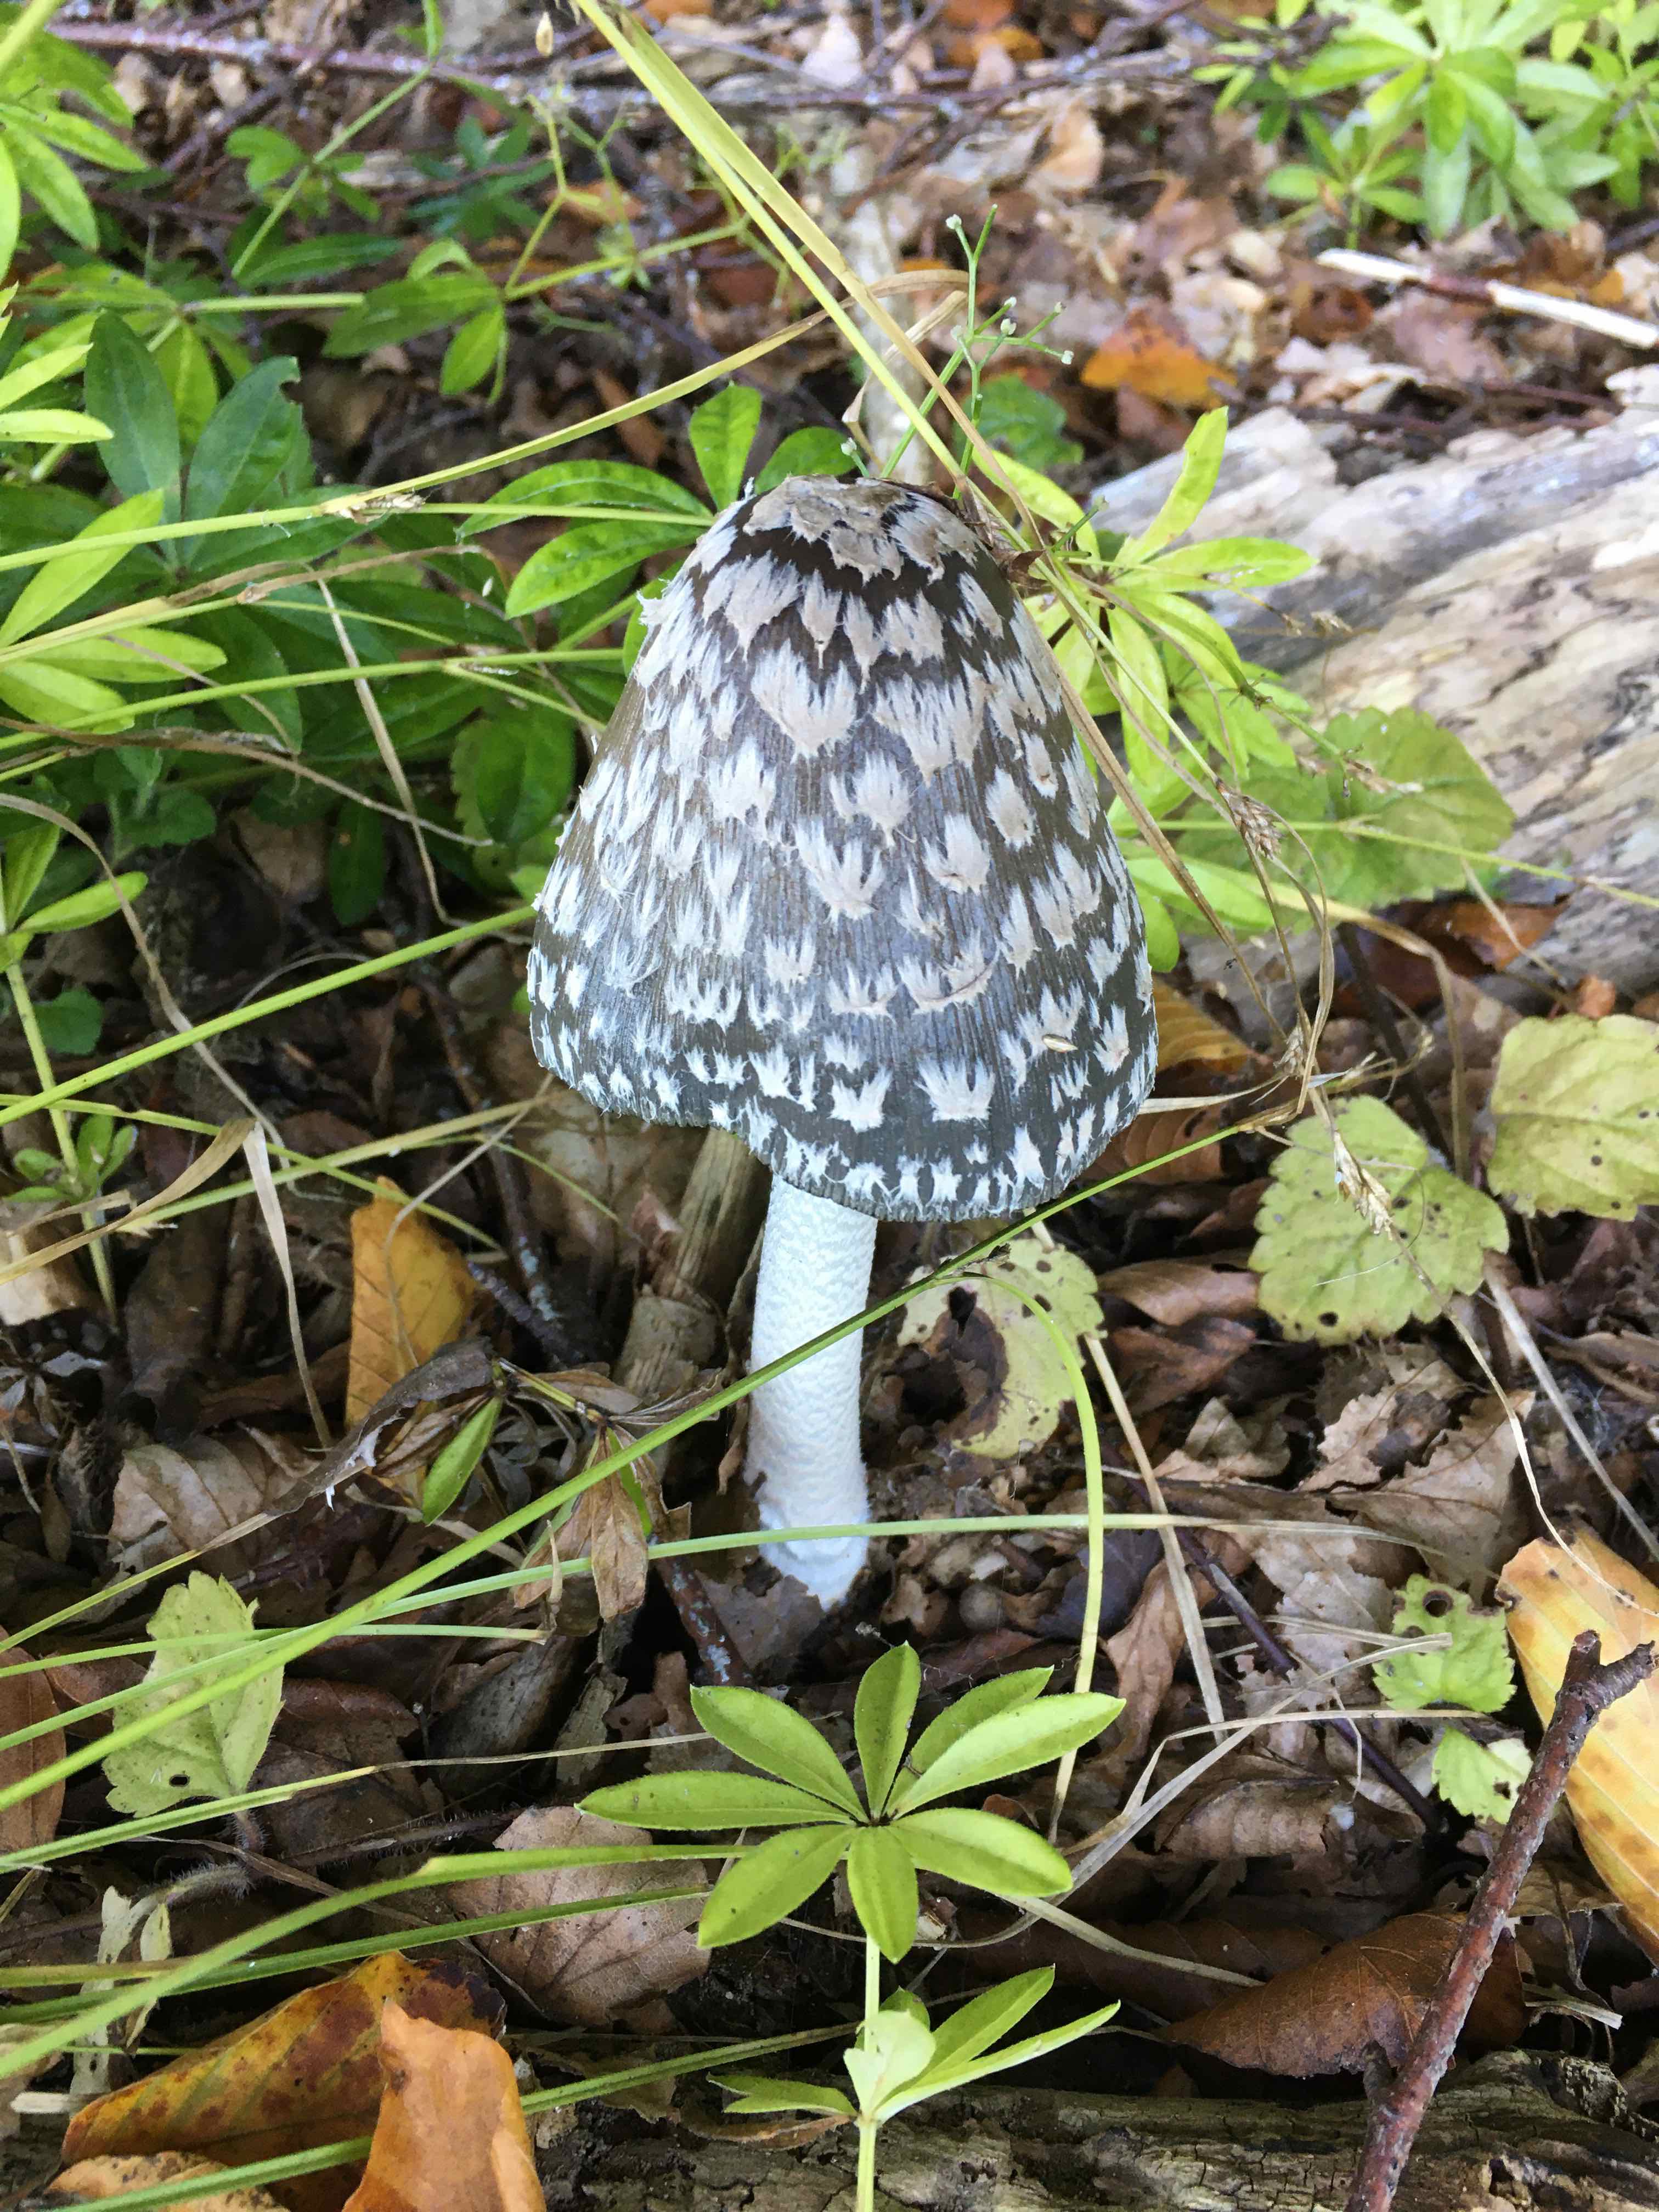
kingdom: Fungi
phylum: Basidiomycota
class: Agaricomycetes
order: Agaricales
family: Psathyrellaceae
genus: Coprinopsis
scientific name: Coprinopsis picacea
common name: skade-blækhat
